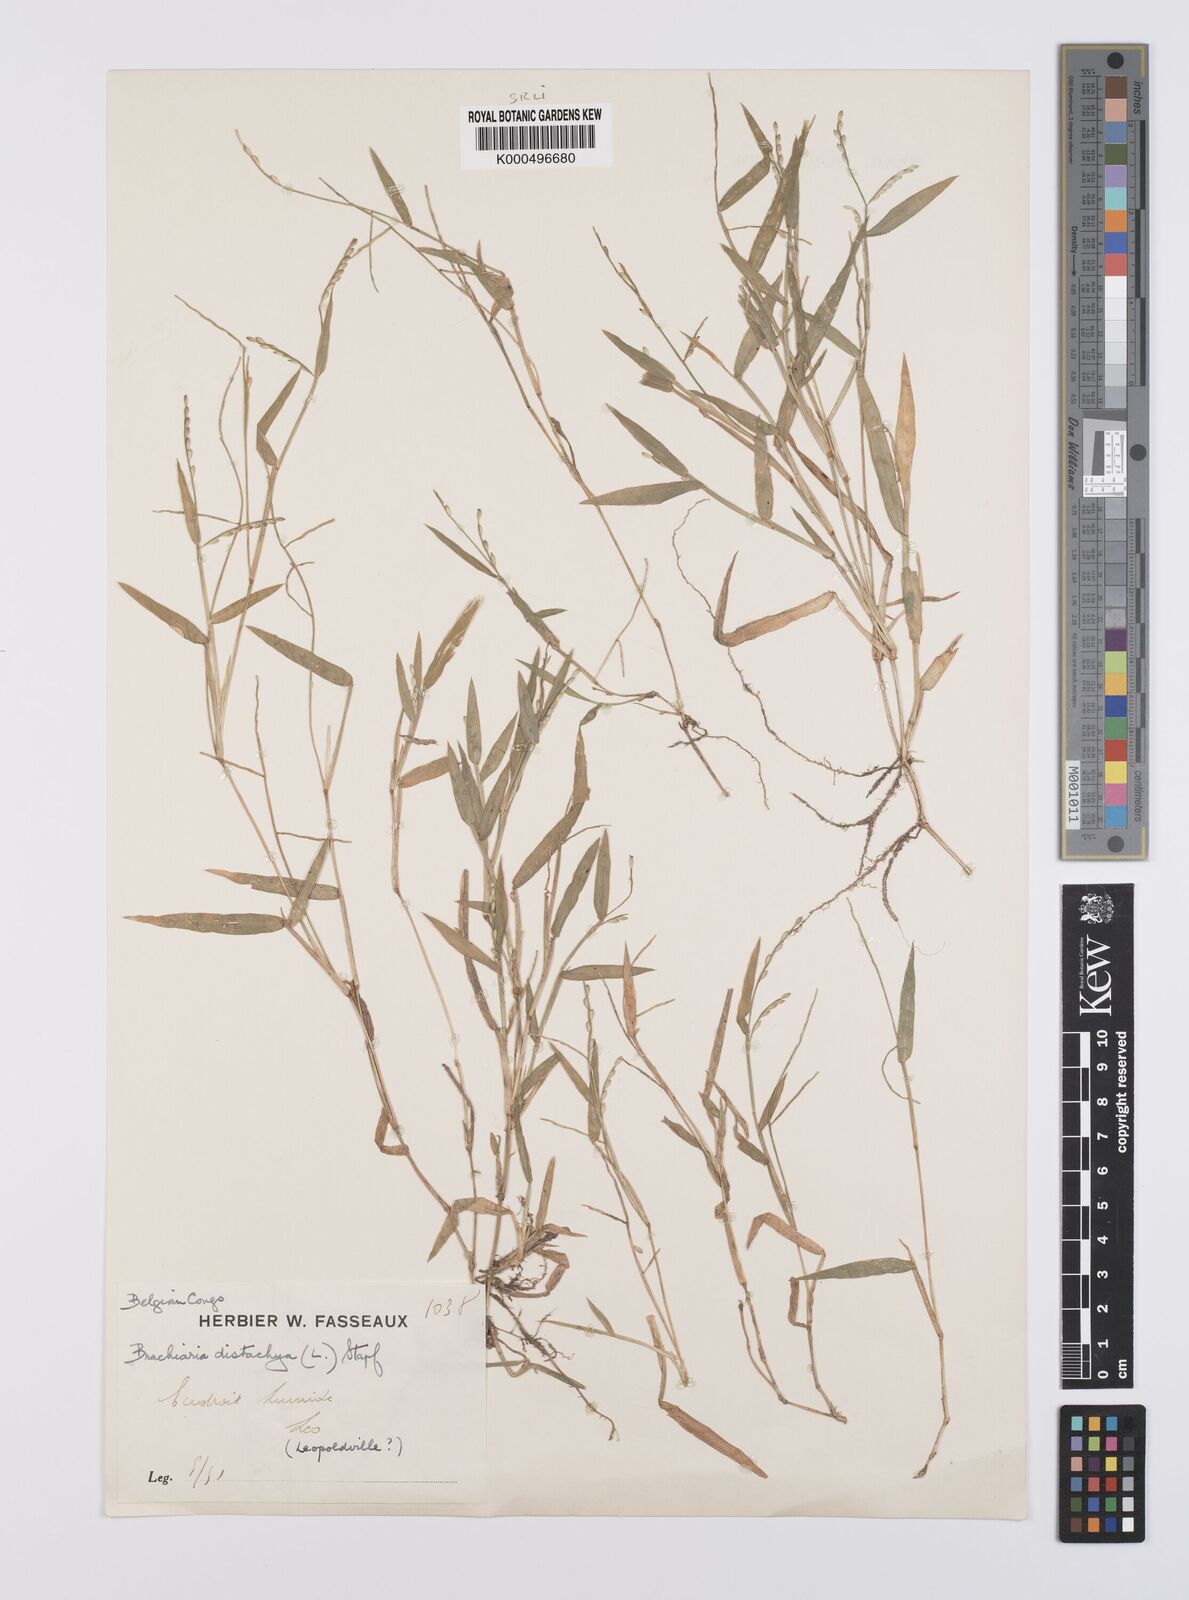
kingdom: Plantae
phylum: Tracheophyta
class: Liliopsida
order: Poales
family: Poaceae
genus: Urochloa
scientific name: Urochloa subquadripara
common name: Armgrass millet
